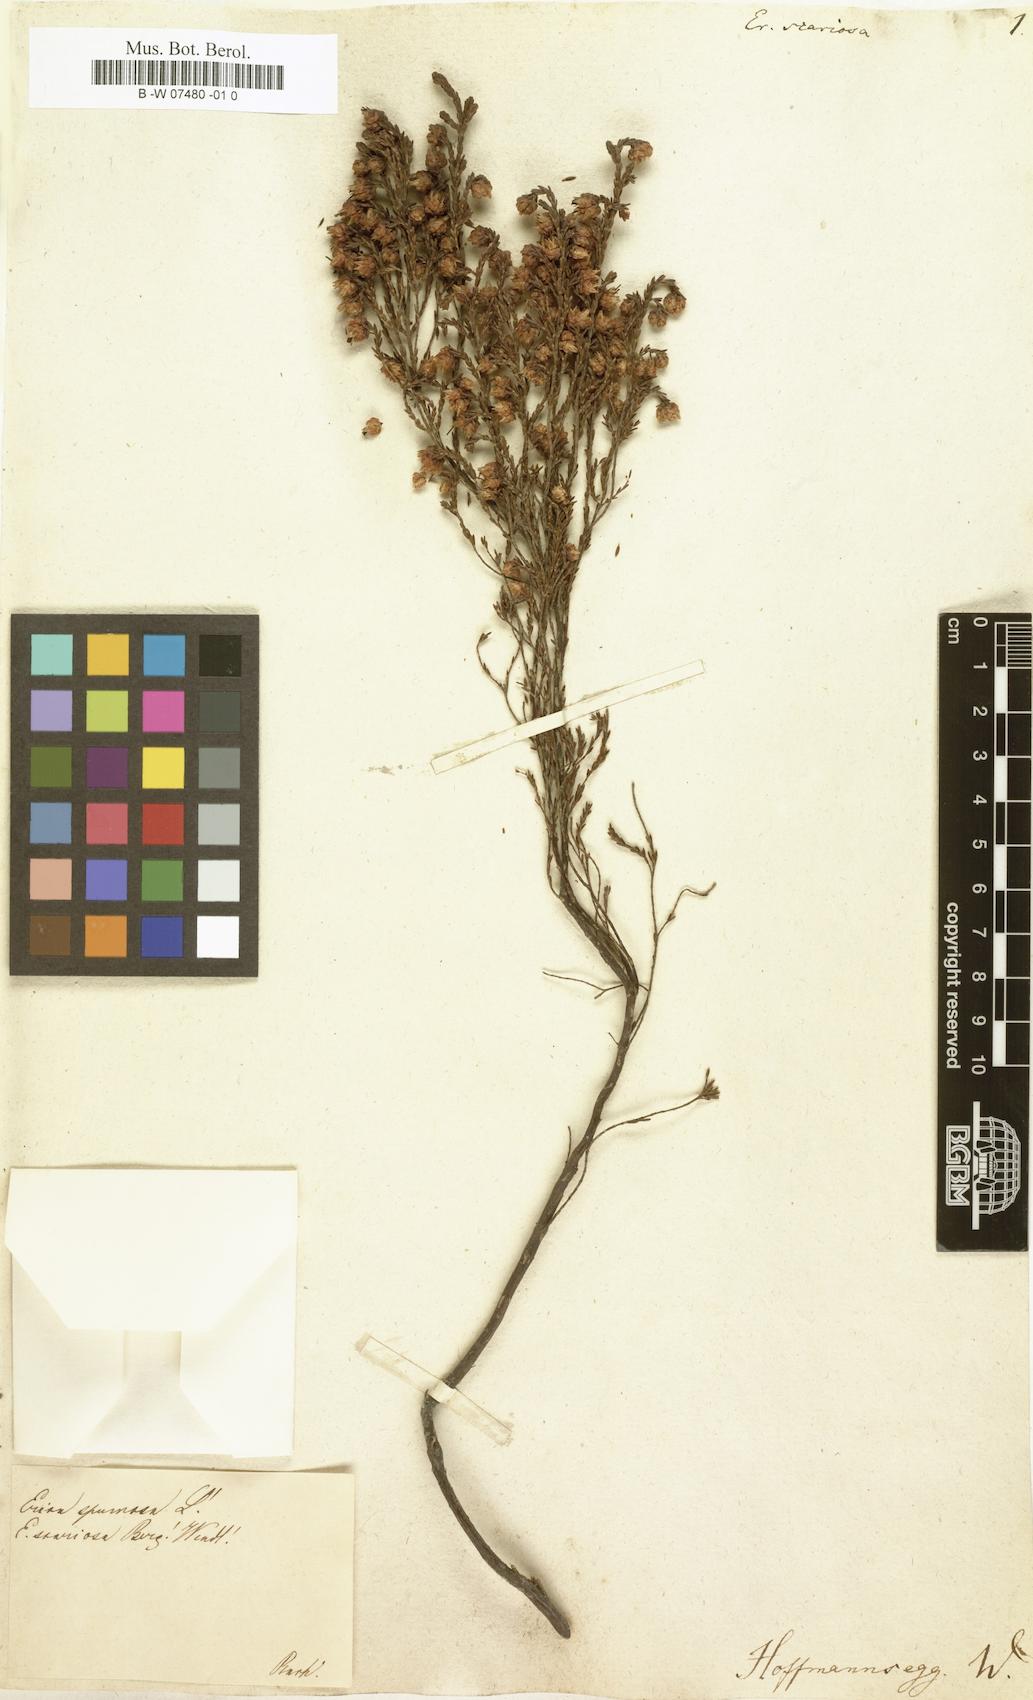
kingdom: Plantae
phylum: Tracheophyta
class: Magnoliopsida
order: Ericales
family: Ericaceae
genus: Erica
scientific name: Erica
